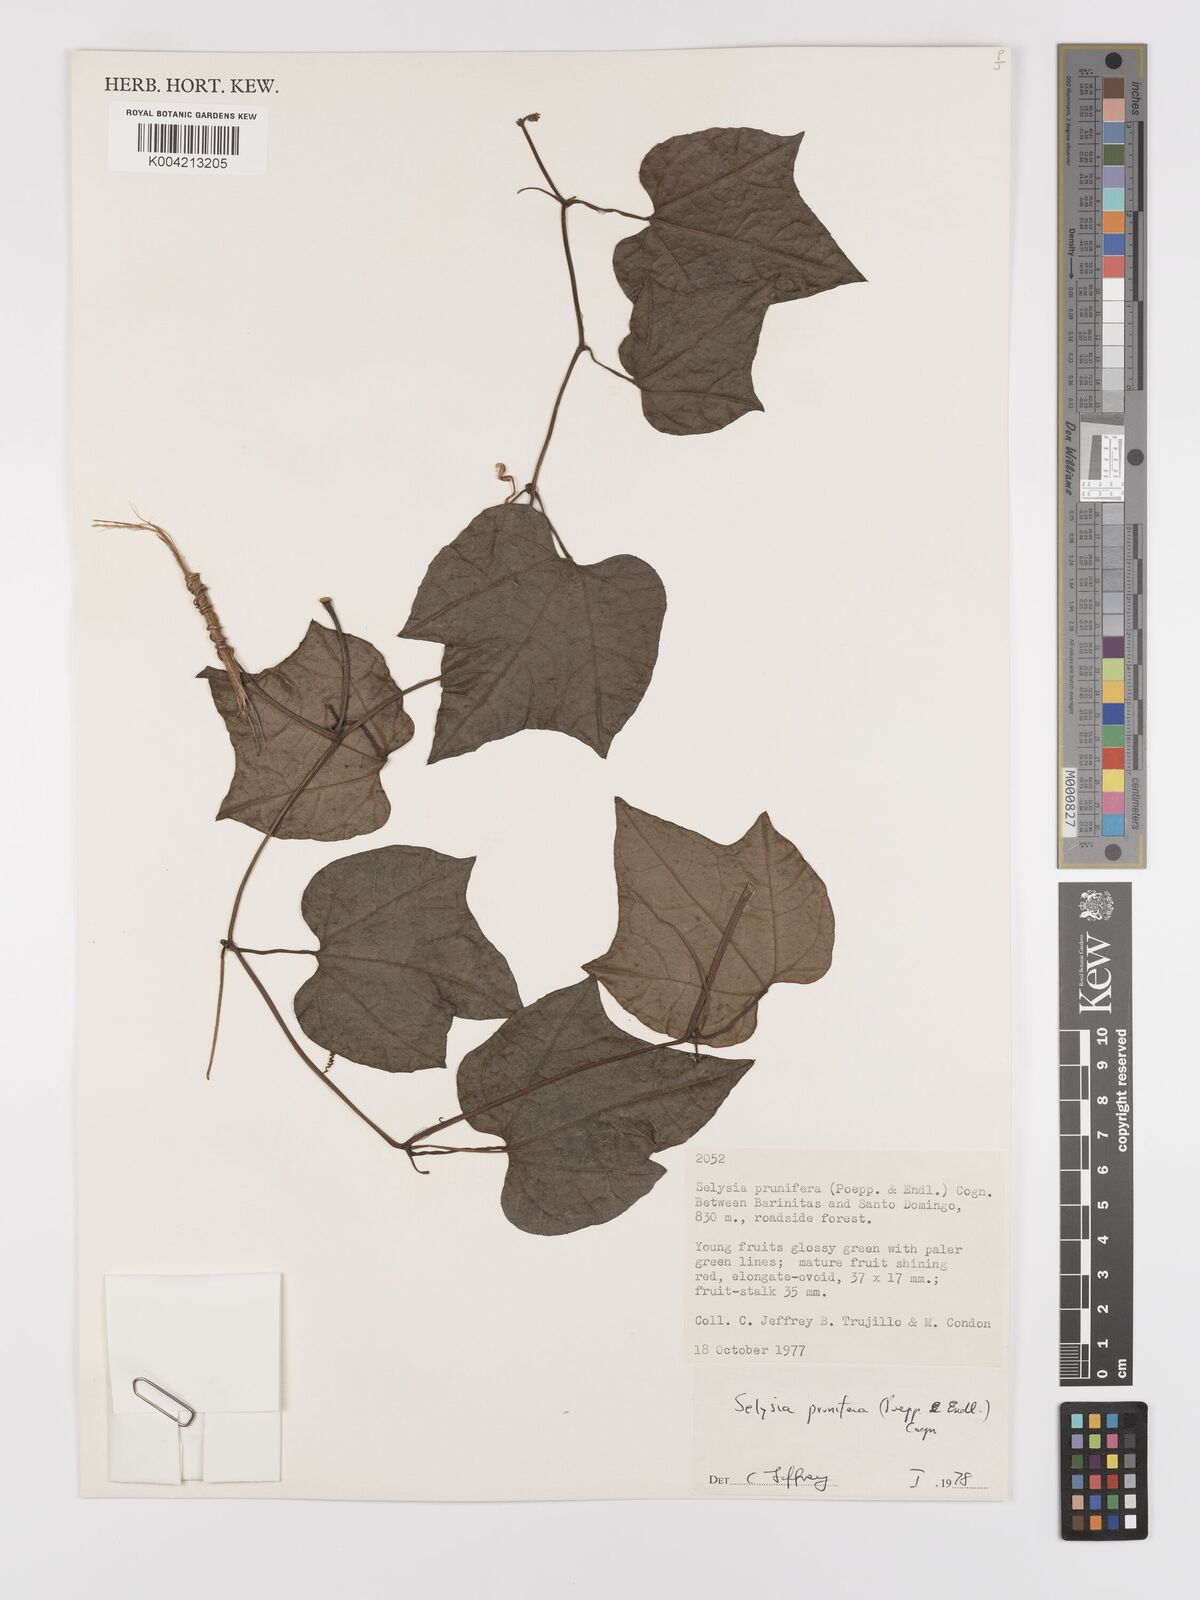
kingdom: Plantae
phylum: Tracheophyta
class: Magnoliopsida
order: Cucurbitales
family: Cucurbitaceae
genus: Cayaponia
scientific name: Cayaponia prunifera
